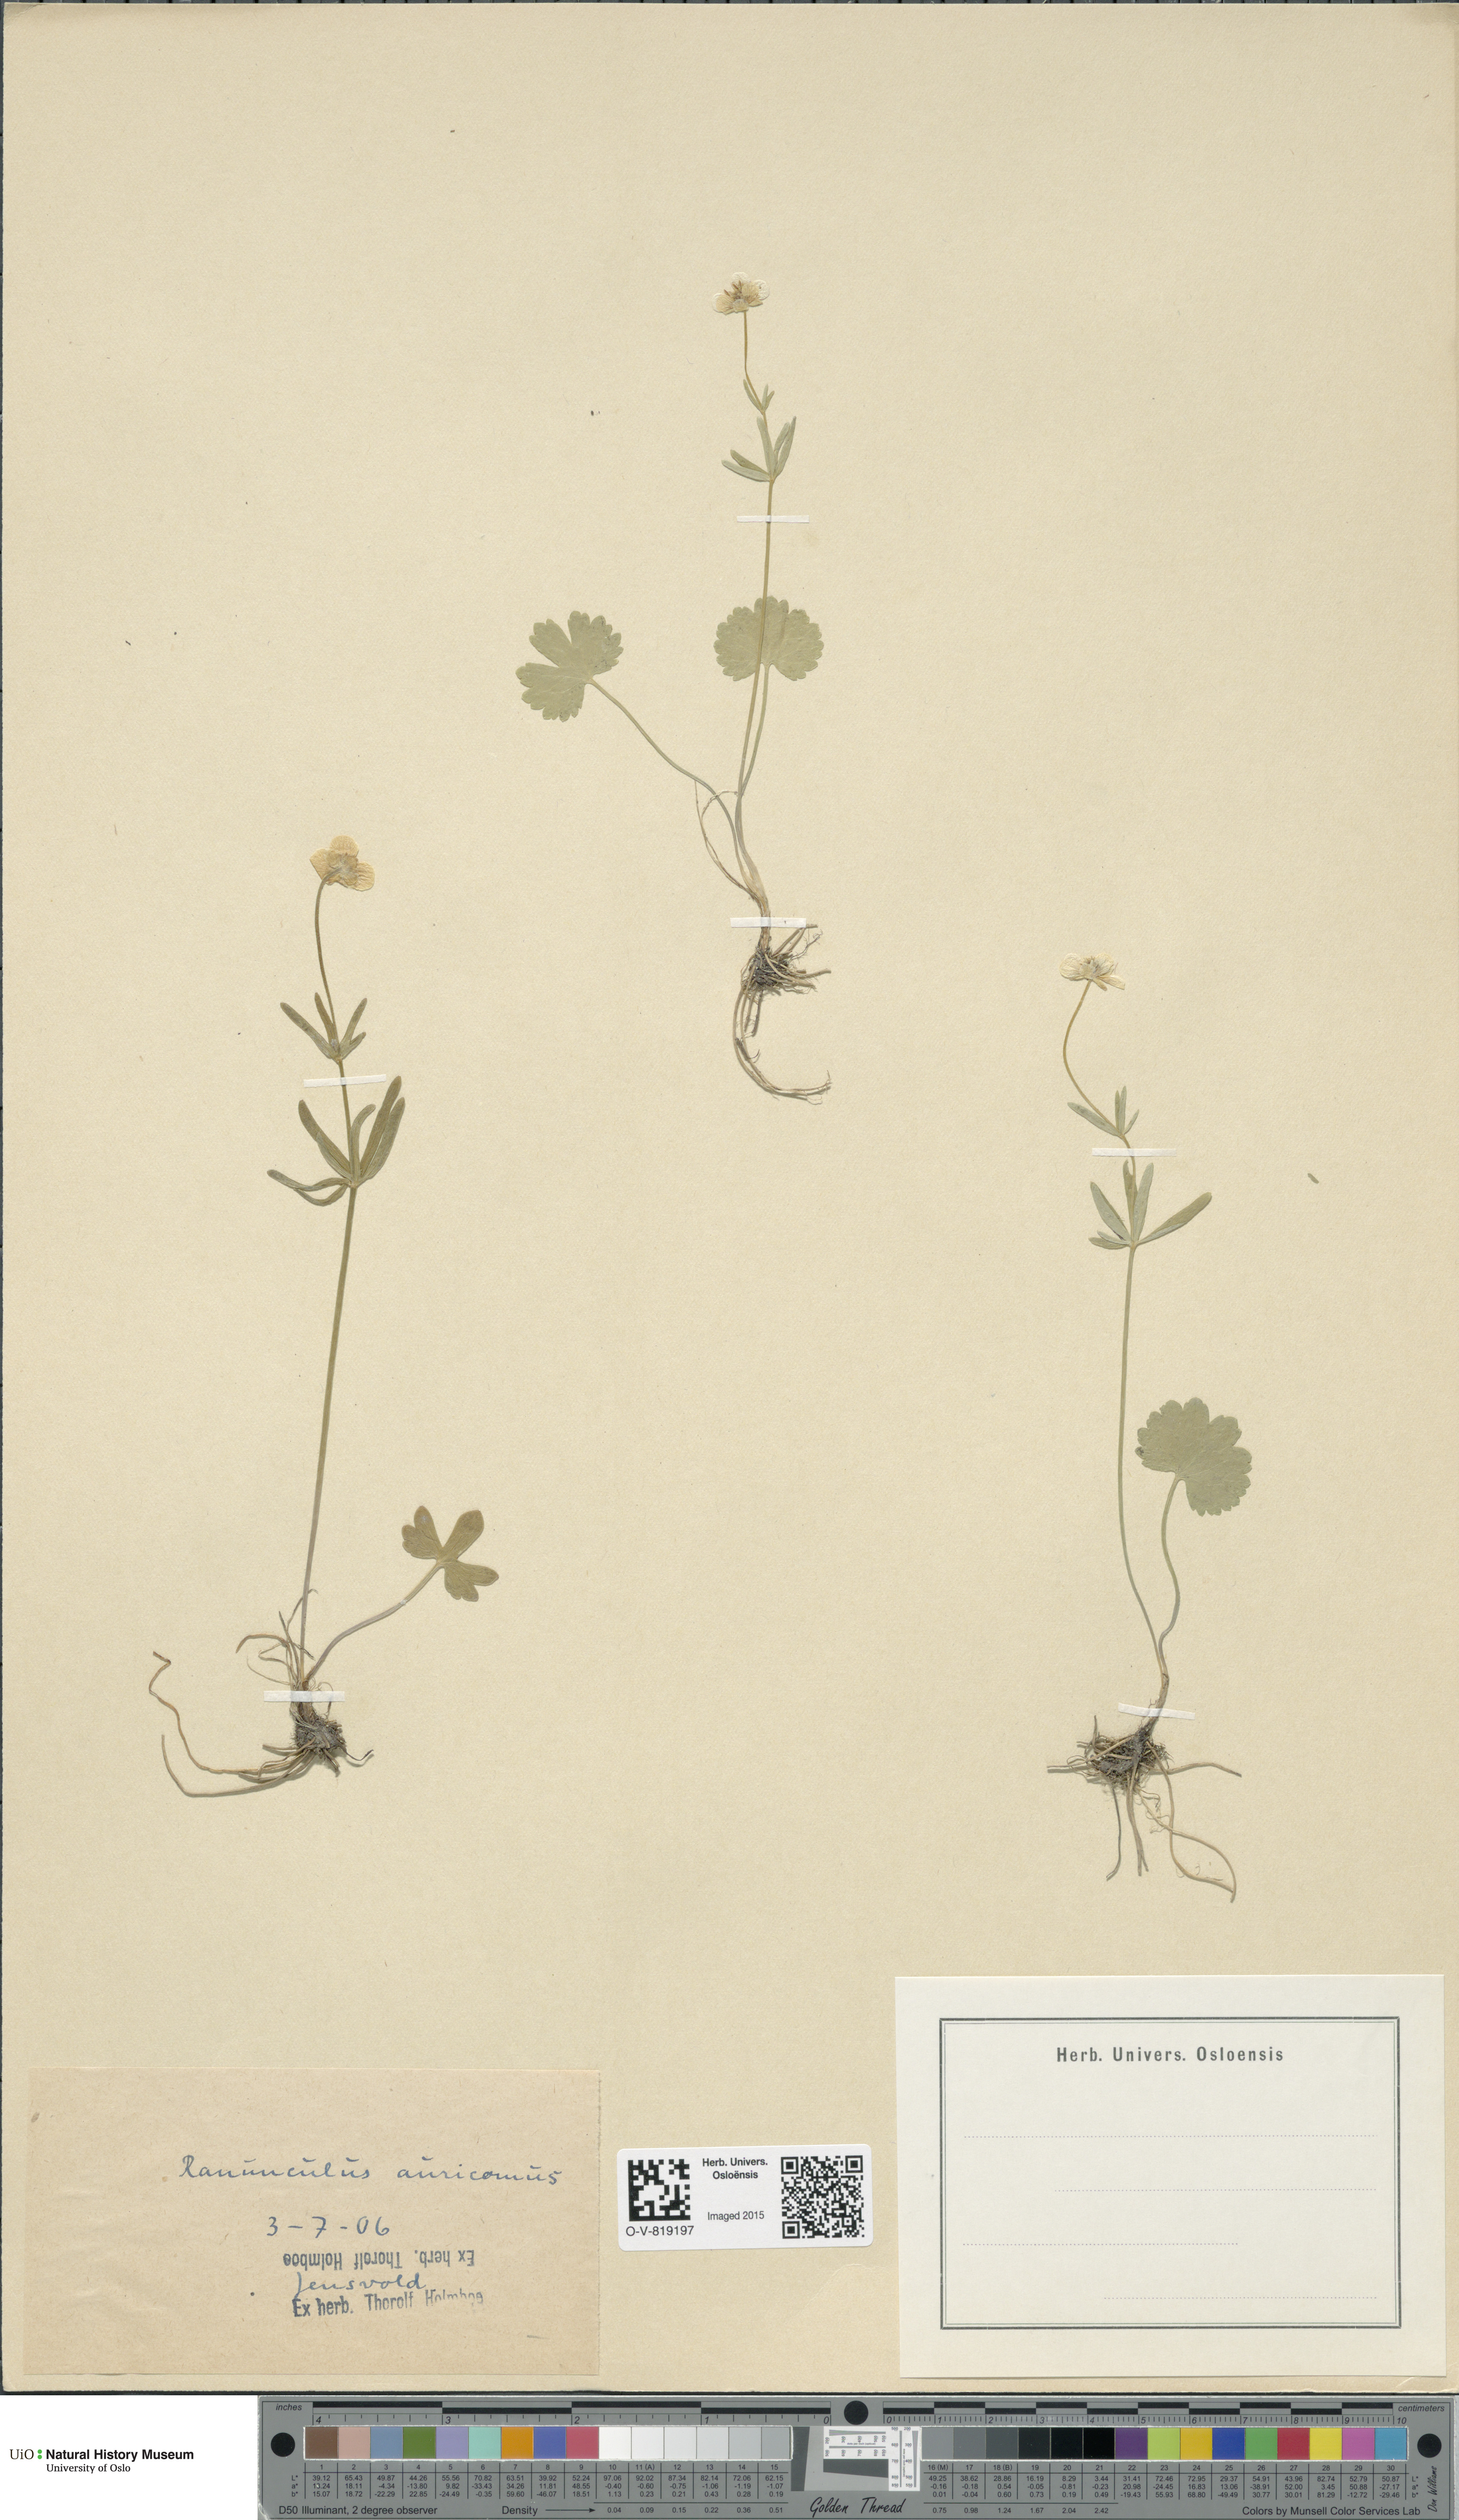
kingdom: Plantae
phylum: Tracheophyta
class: Magnoliopsida
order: Ranunculales
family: Ranunculaceae
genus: Ranunculus
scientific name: Ranunculus auricomus
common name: Goldilocks buttercup
